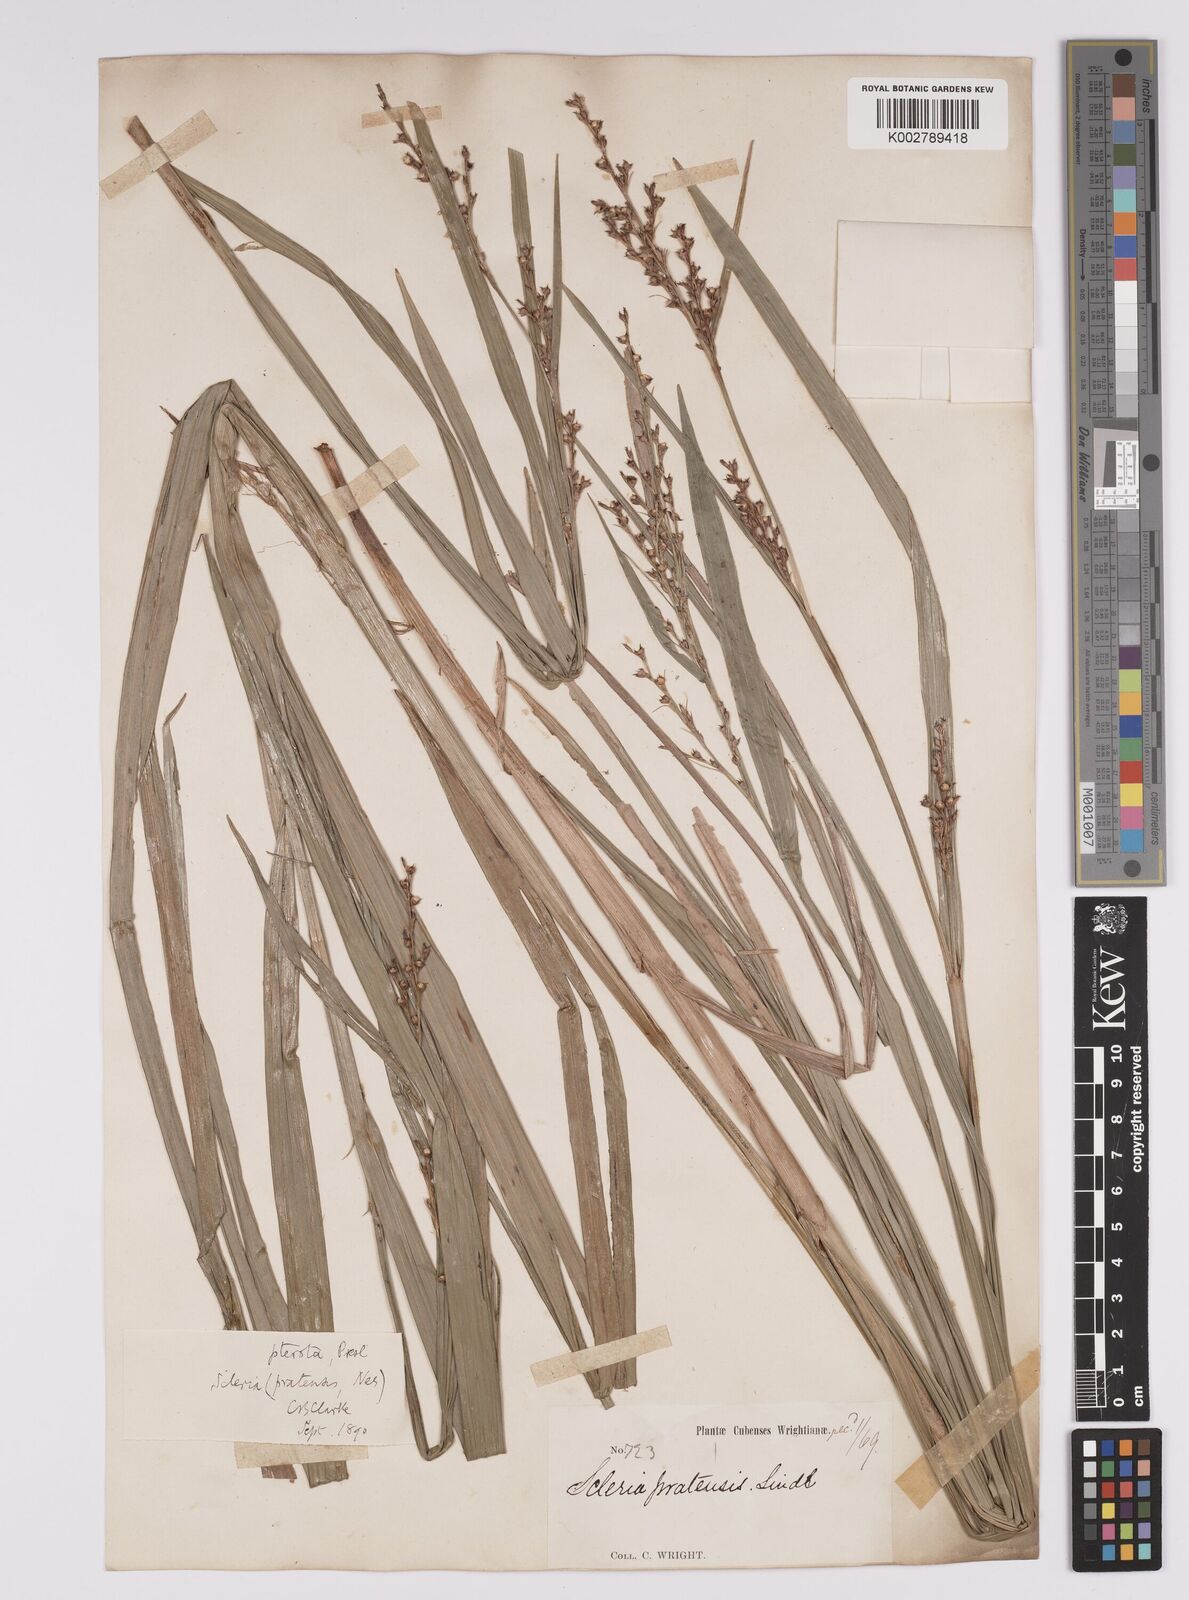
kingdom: Plantae
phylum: Tracheophyta
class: Liliopsida
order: Poales
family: Cyperaceae
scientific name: Cyperaceae
